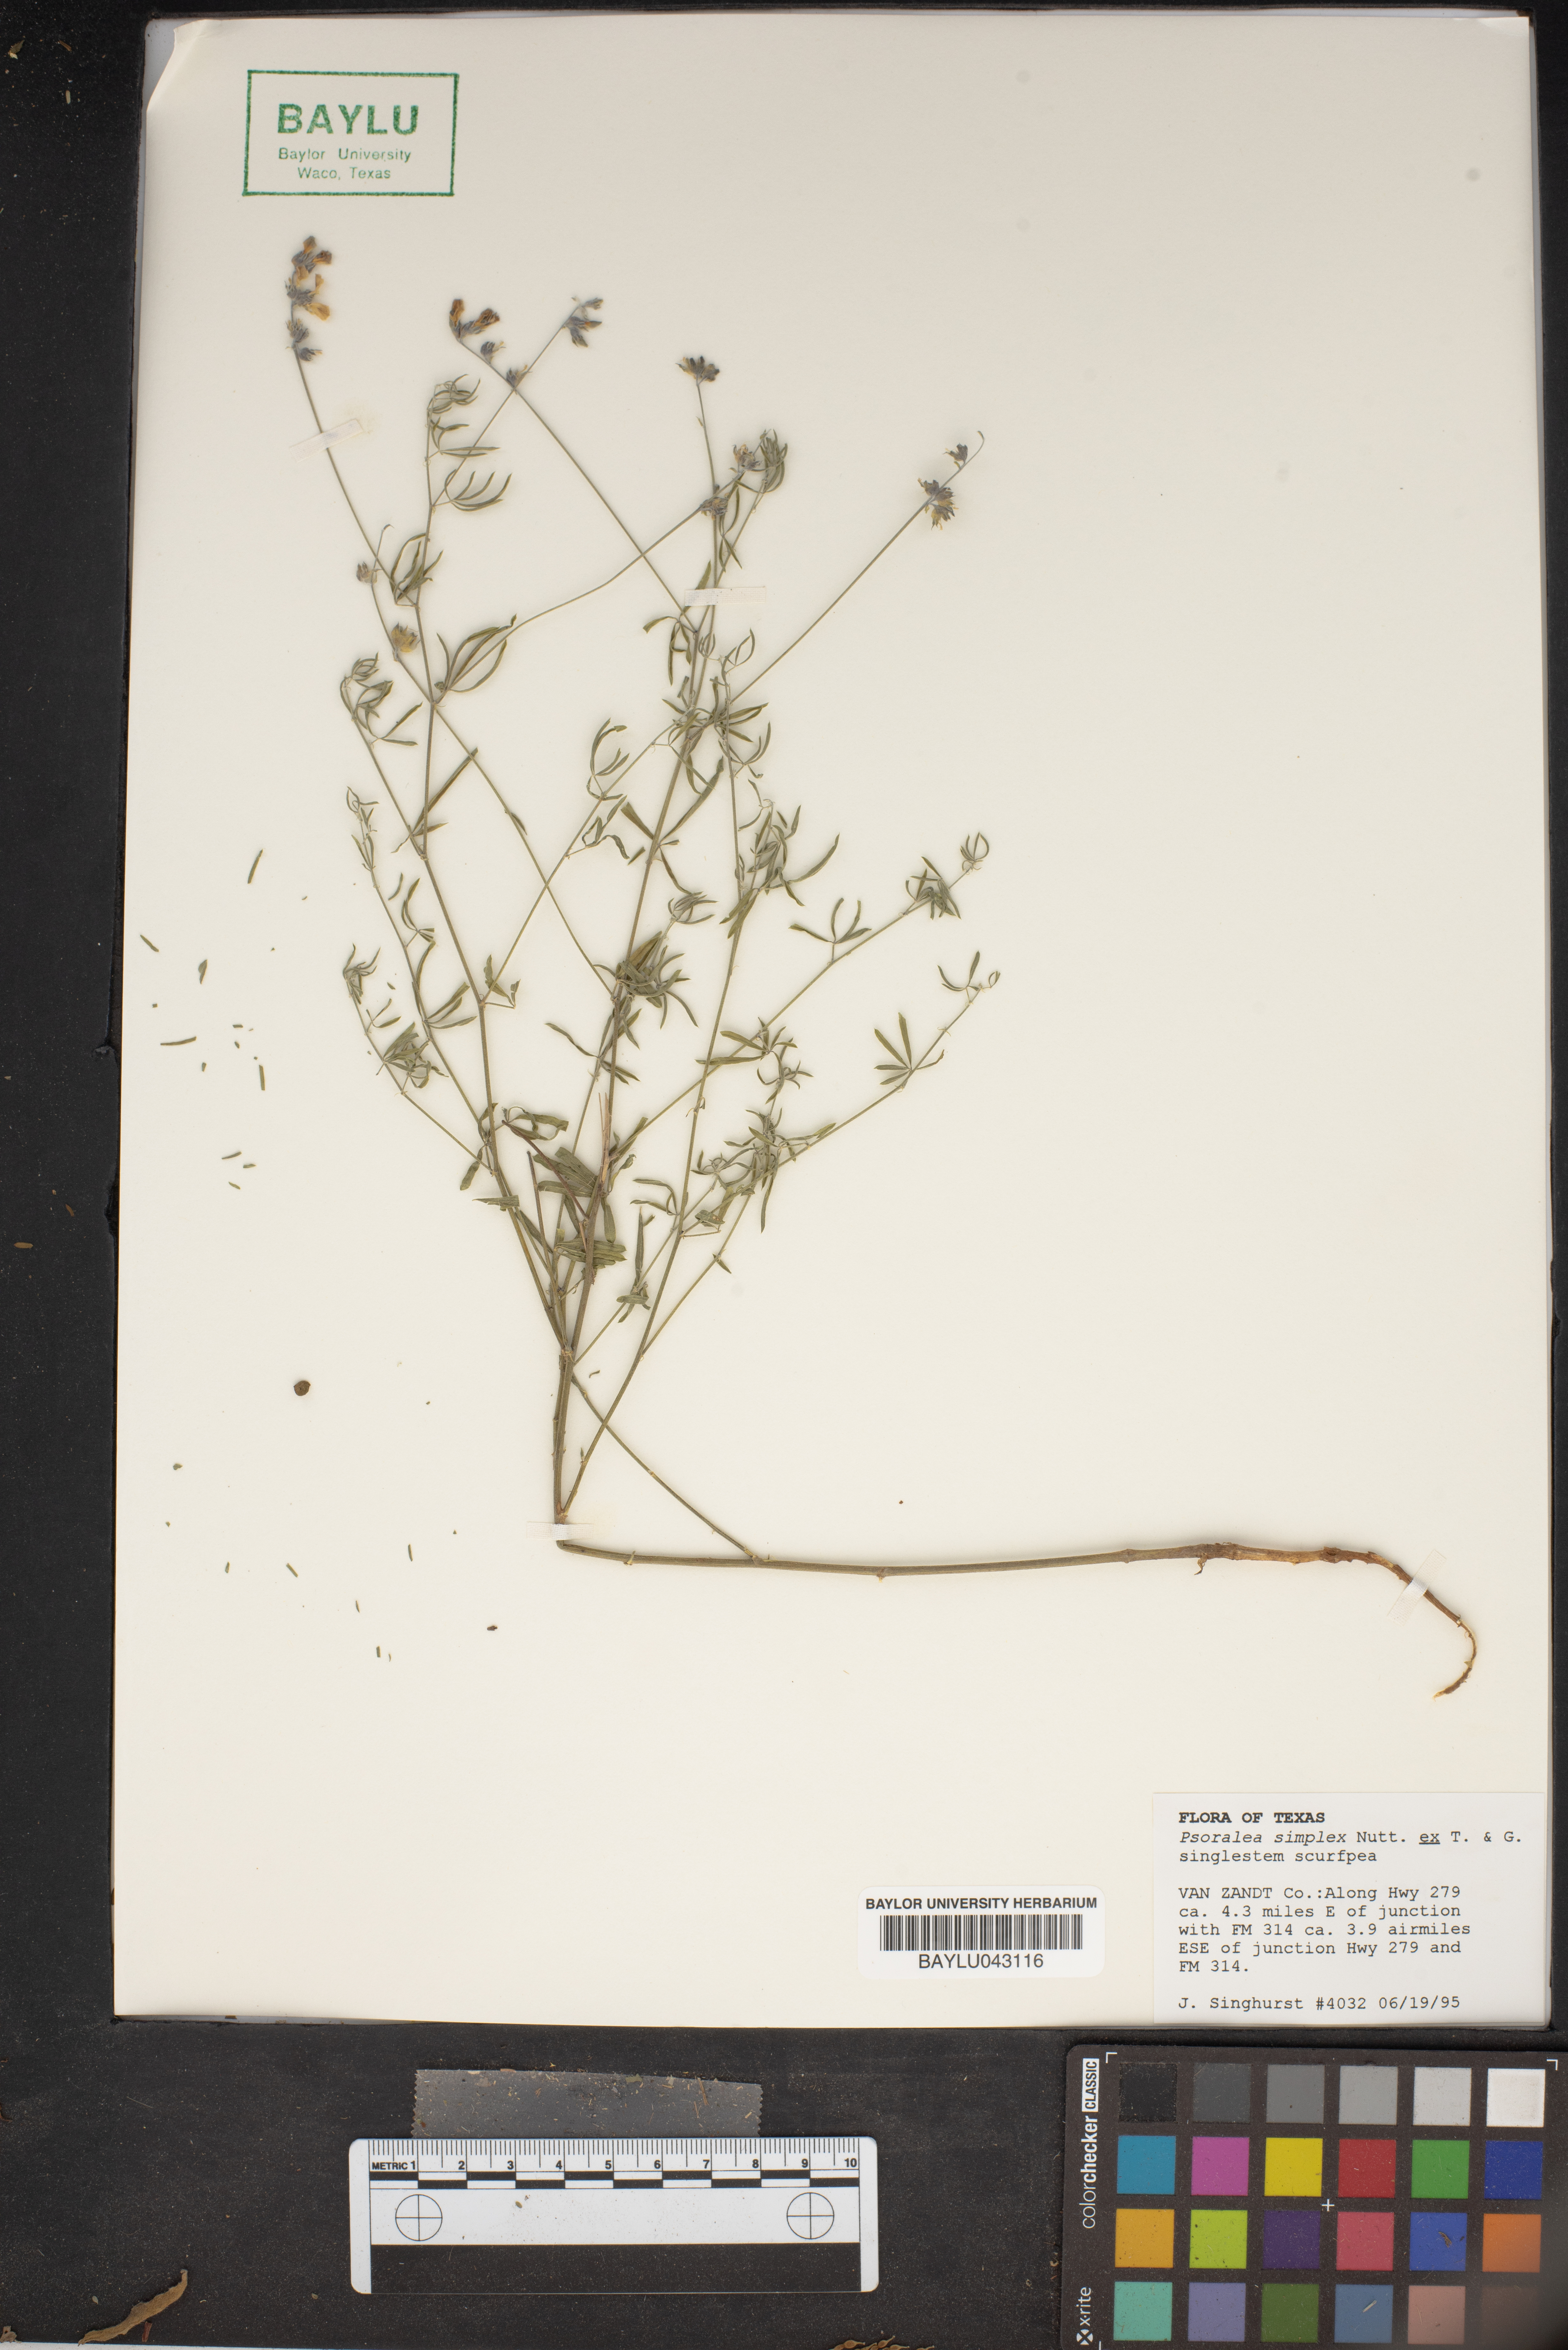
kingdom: Plantae
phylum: Tracheophyta
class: Magnoliopsida
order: Fabales
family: Fabaceae
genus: Orbexilum
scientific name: Orbexilum simplex
